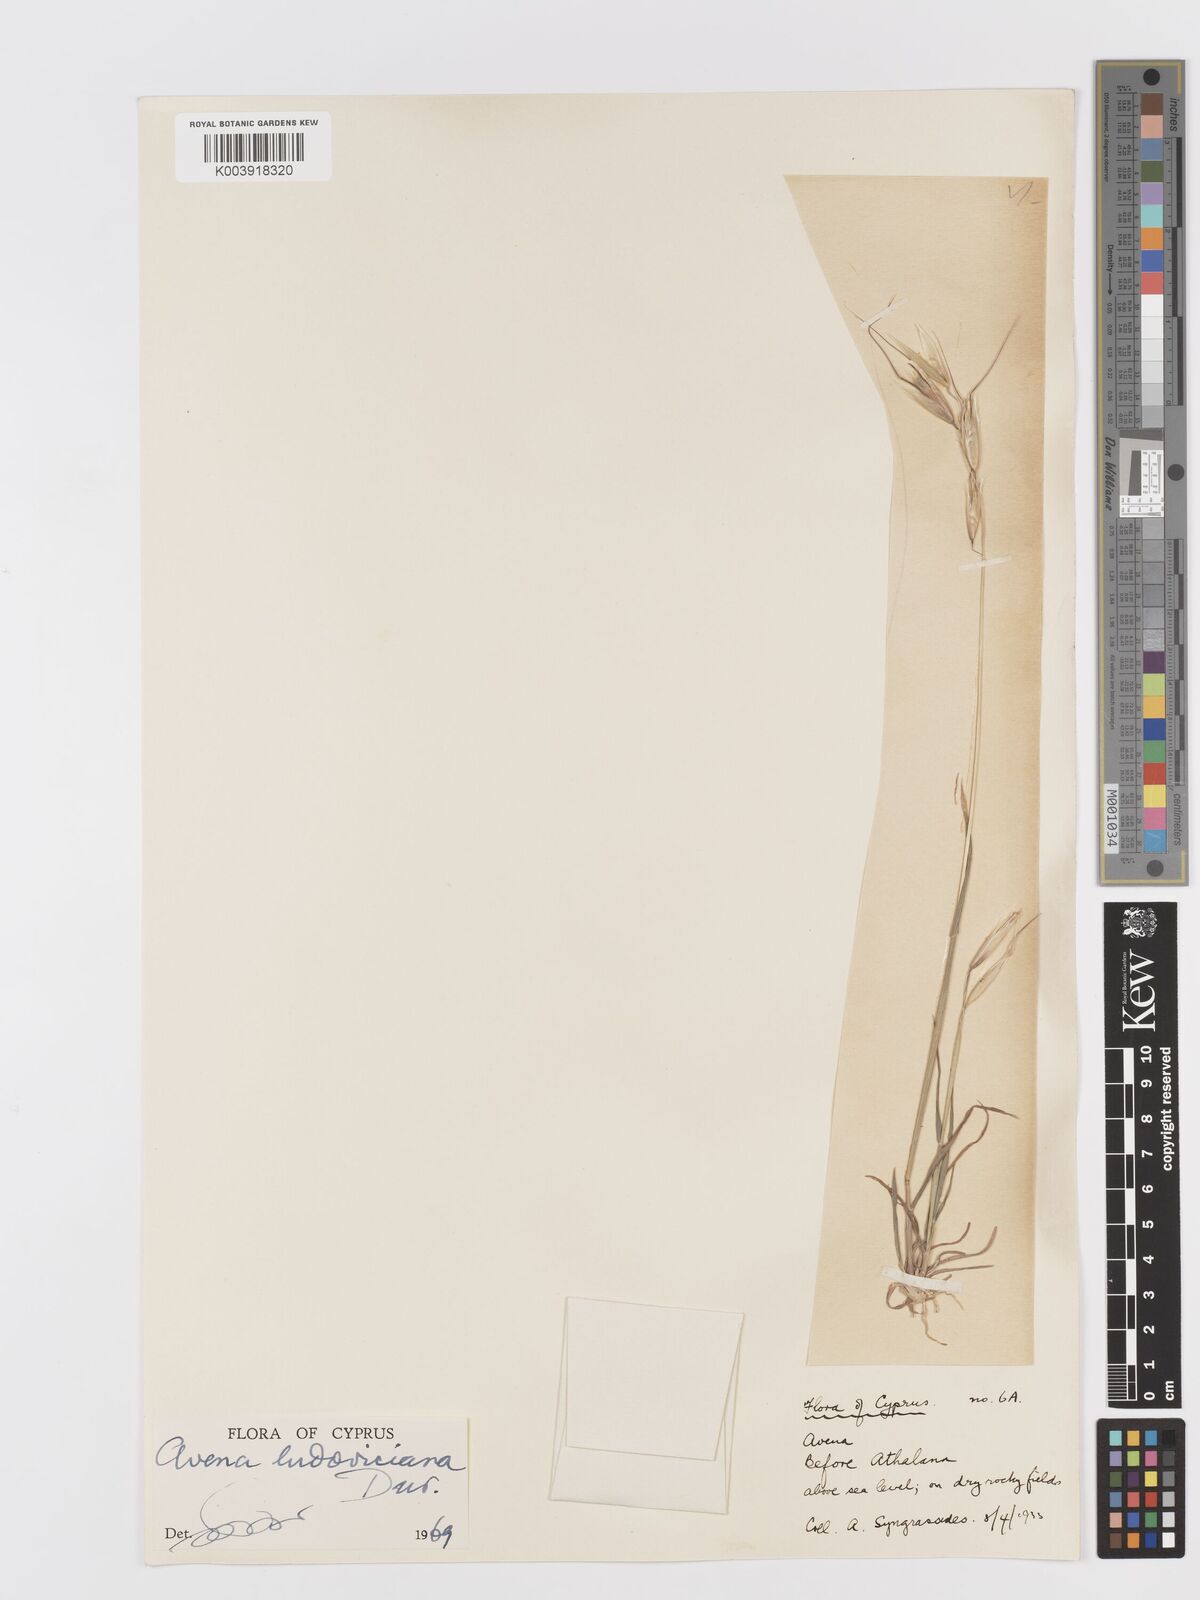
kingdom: Plantae
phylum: Tracheophyta
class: Liliopsida
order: Poales
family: Poaceae
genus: Avena
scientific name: Avena sterilis
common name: Animated oat
